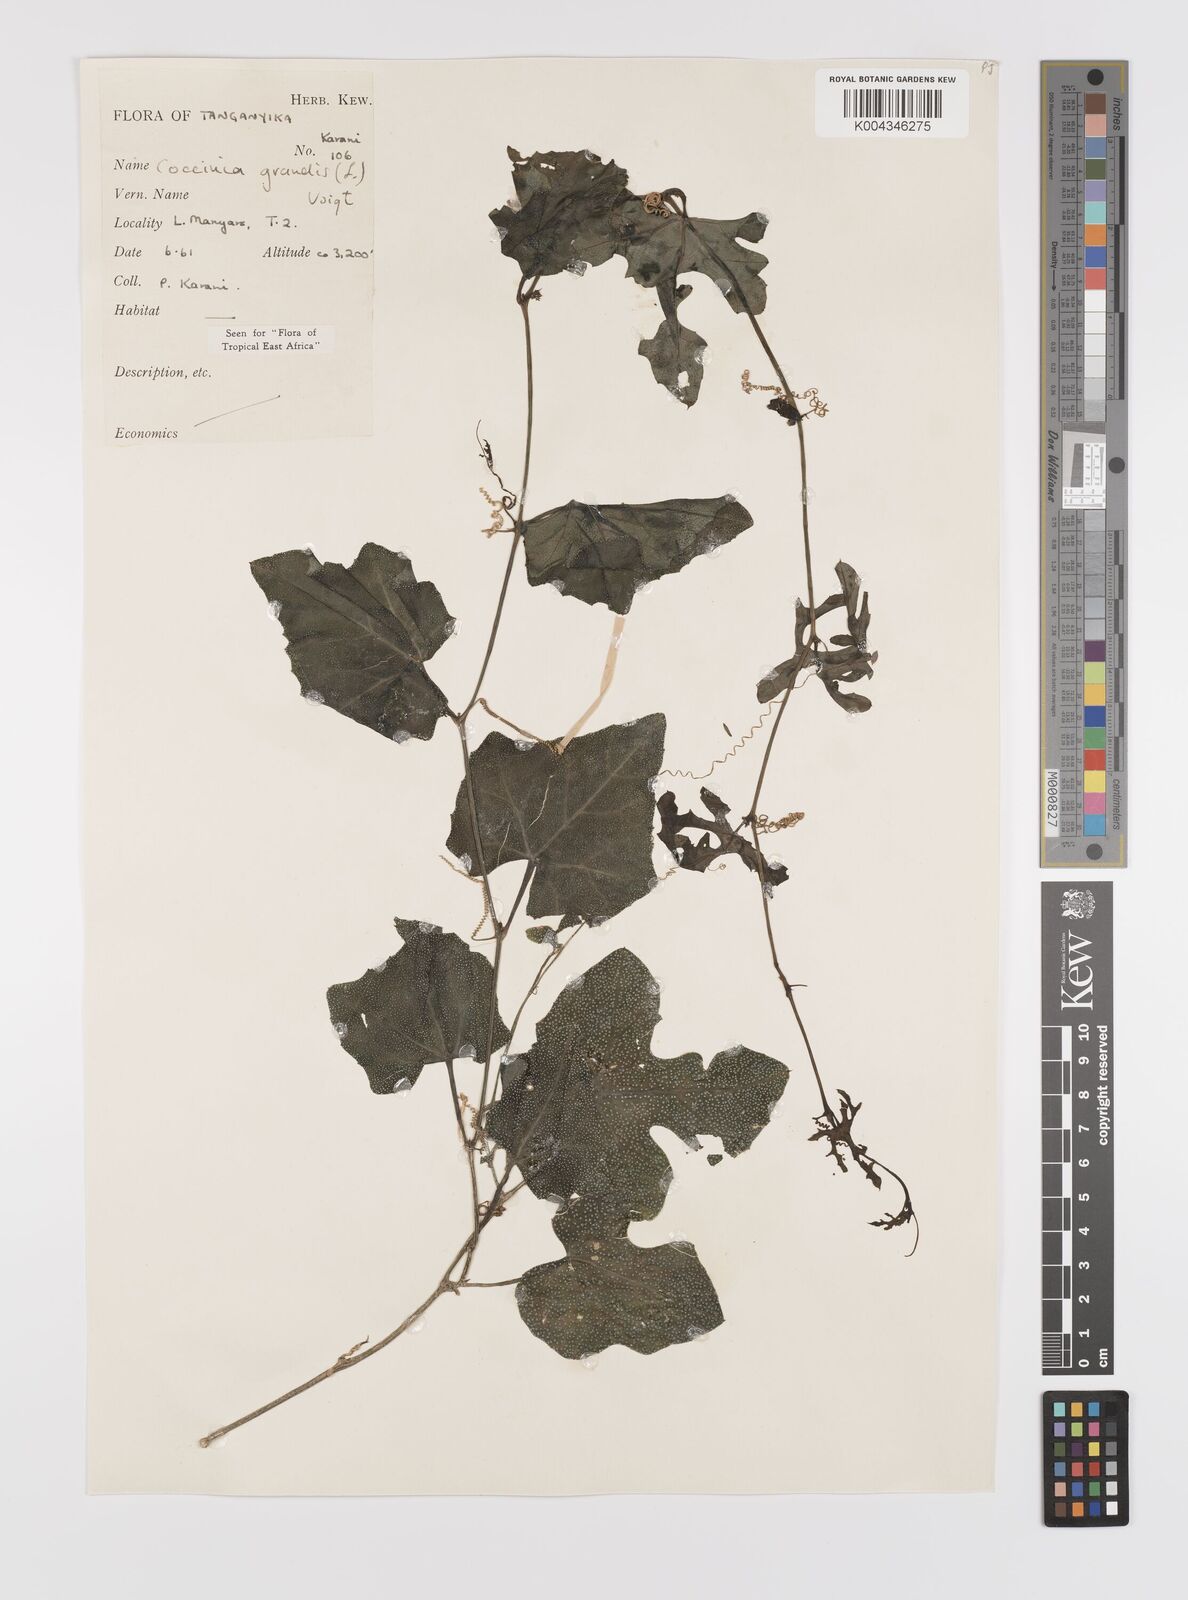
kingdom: Plantae
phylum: Tracheophyta
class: Magnoliopsida
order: Cucurbitales
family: Cucurbitaceae
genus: Coccinia
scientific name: Coccinia grandis
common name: Ivy gourd
